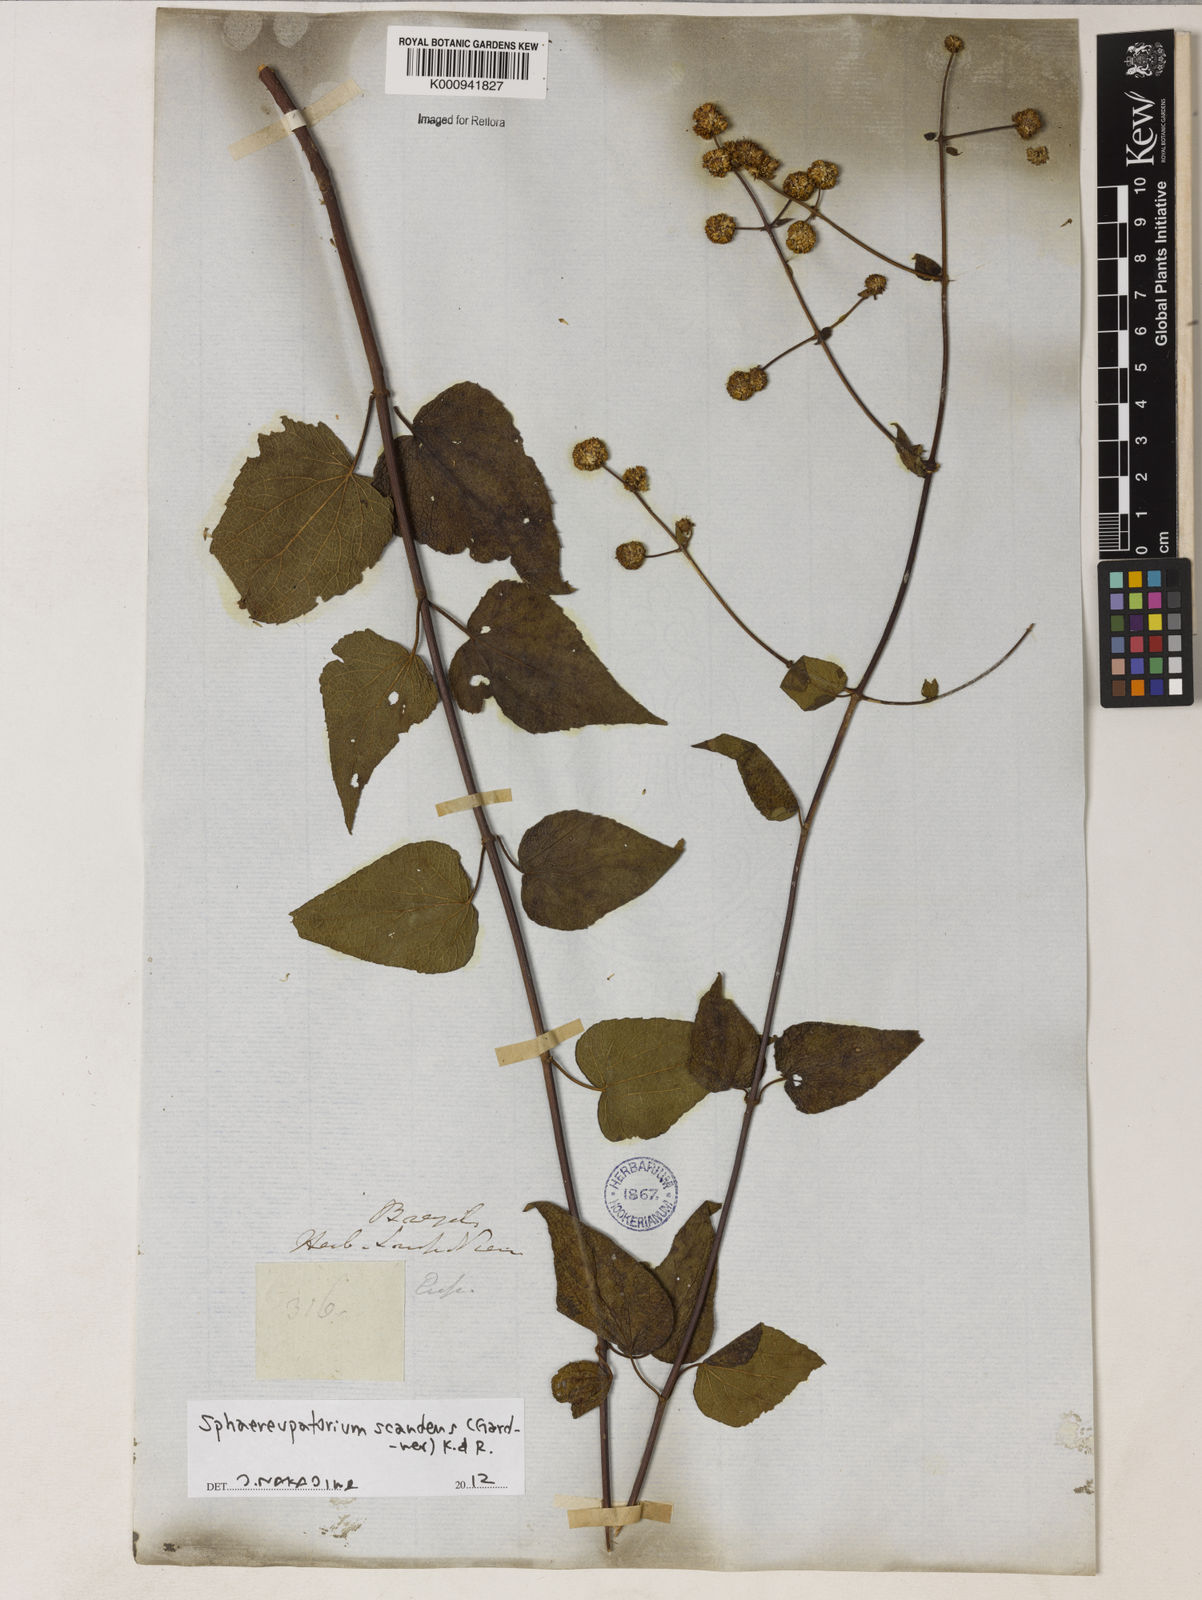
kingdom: Plantae
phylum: Tracheophyta
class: Magnoliopsida
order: Asterales
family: Asteraceae
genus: Sphaereupatorium
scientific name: Sphaereupatorium scandens
